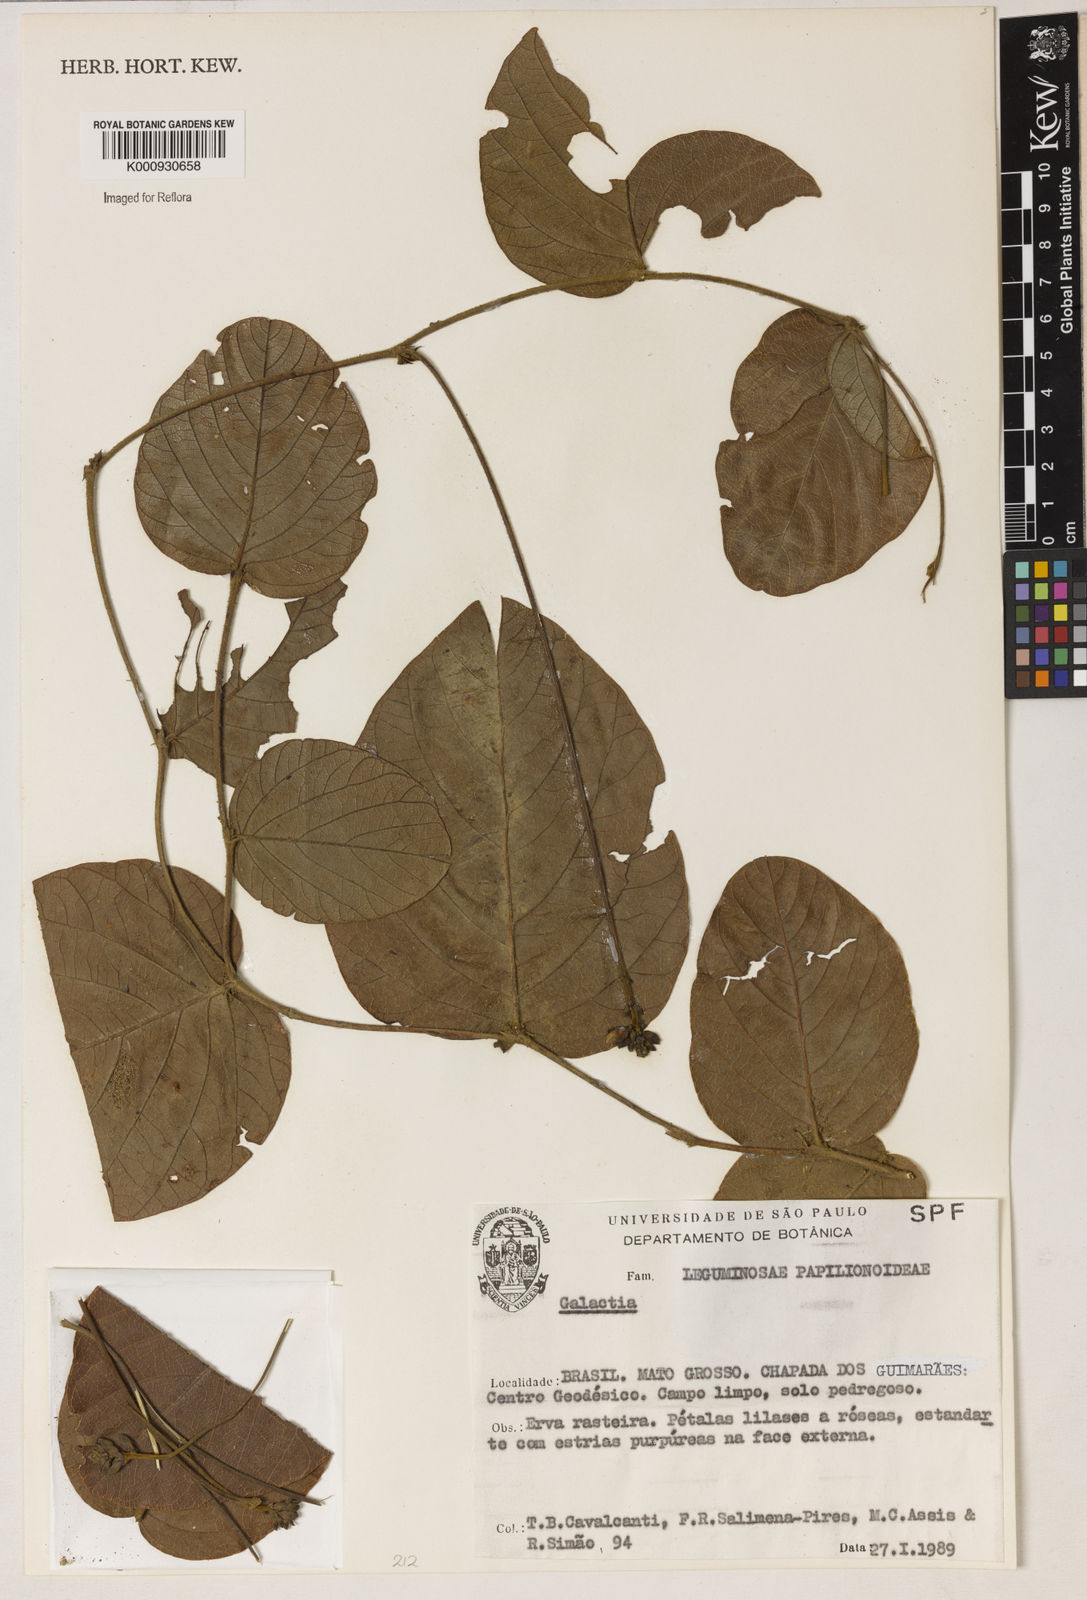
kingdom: Plantae
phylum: Tracheophyta
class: Magnoliopsida
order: Fabales
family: Fabaceae
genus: Galactia
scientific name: Galactia
